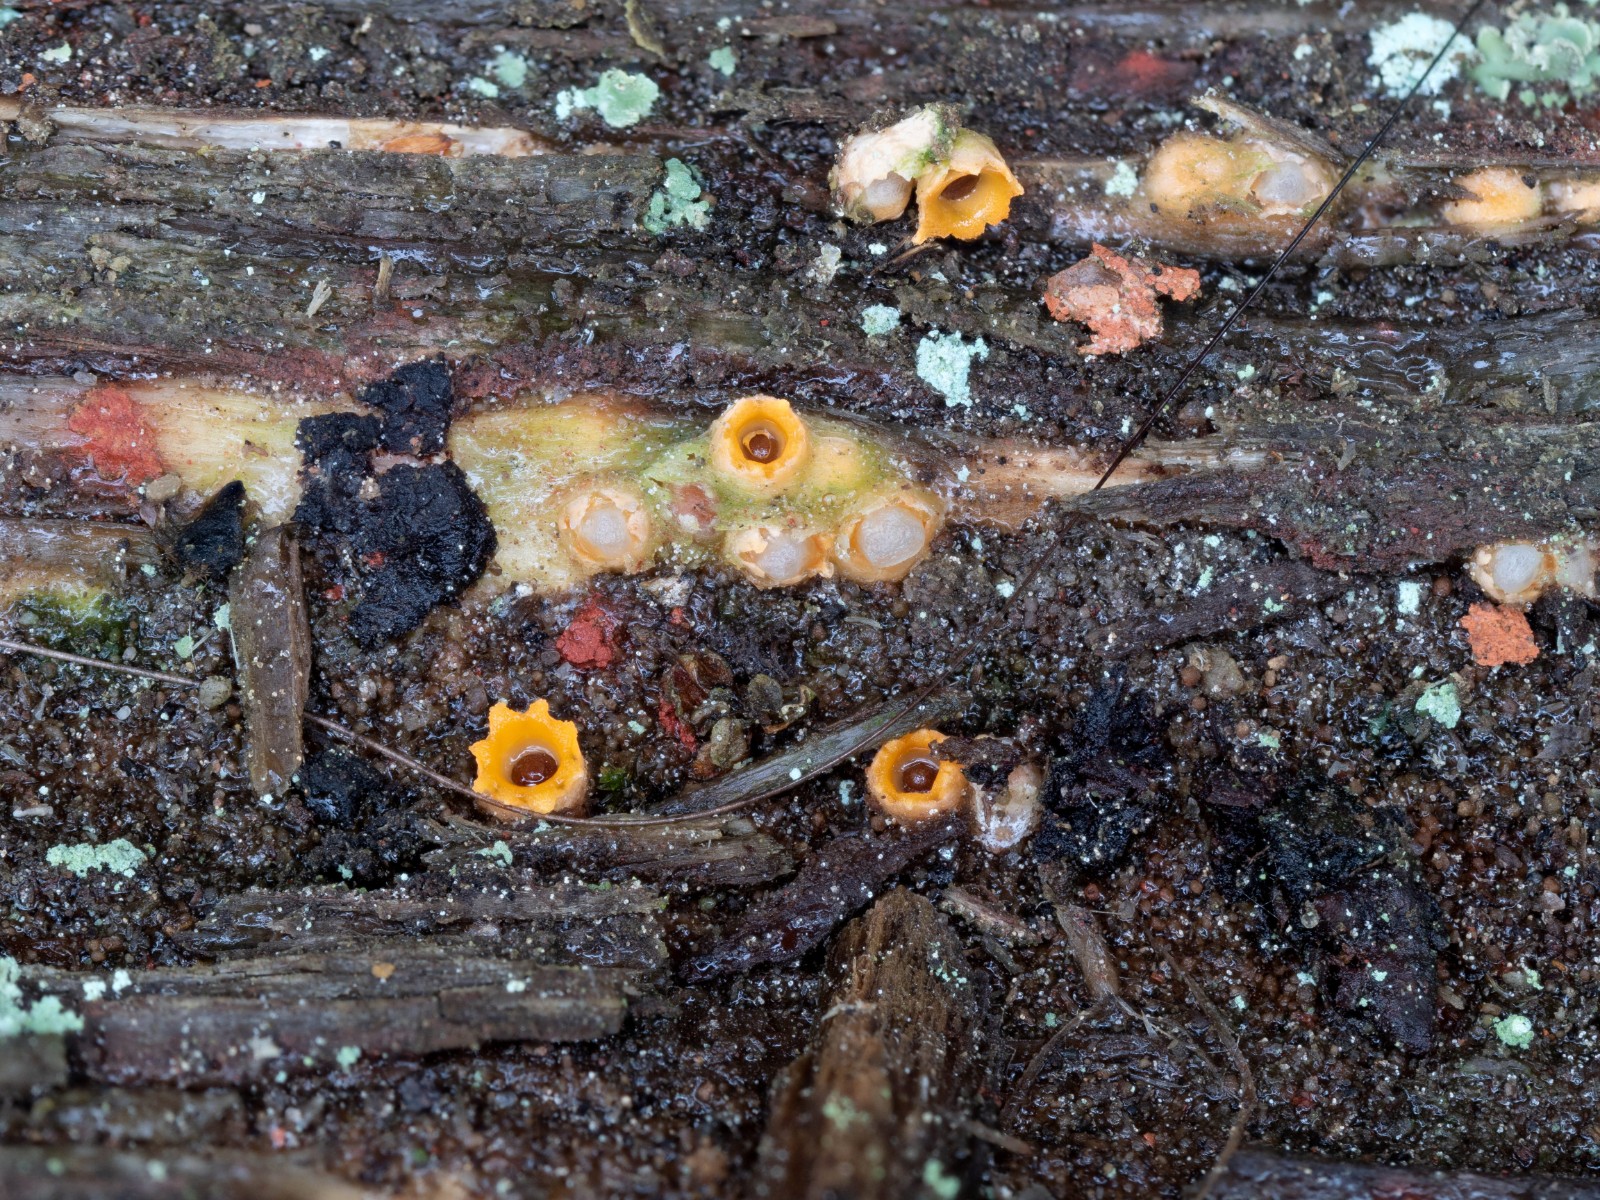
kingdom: Fungi
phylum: Basidiomycota
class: Agaricomycetes
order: Geastrales
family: Geastraceae
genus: Sphaerobolus
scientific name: Sphaerobolus stellatus
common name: bombekaster
